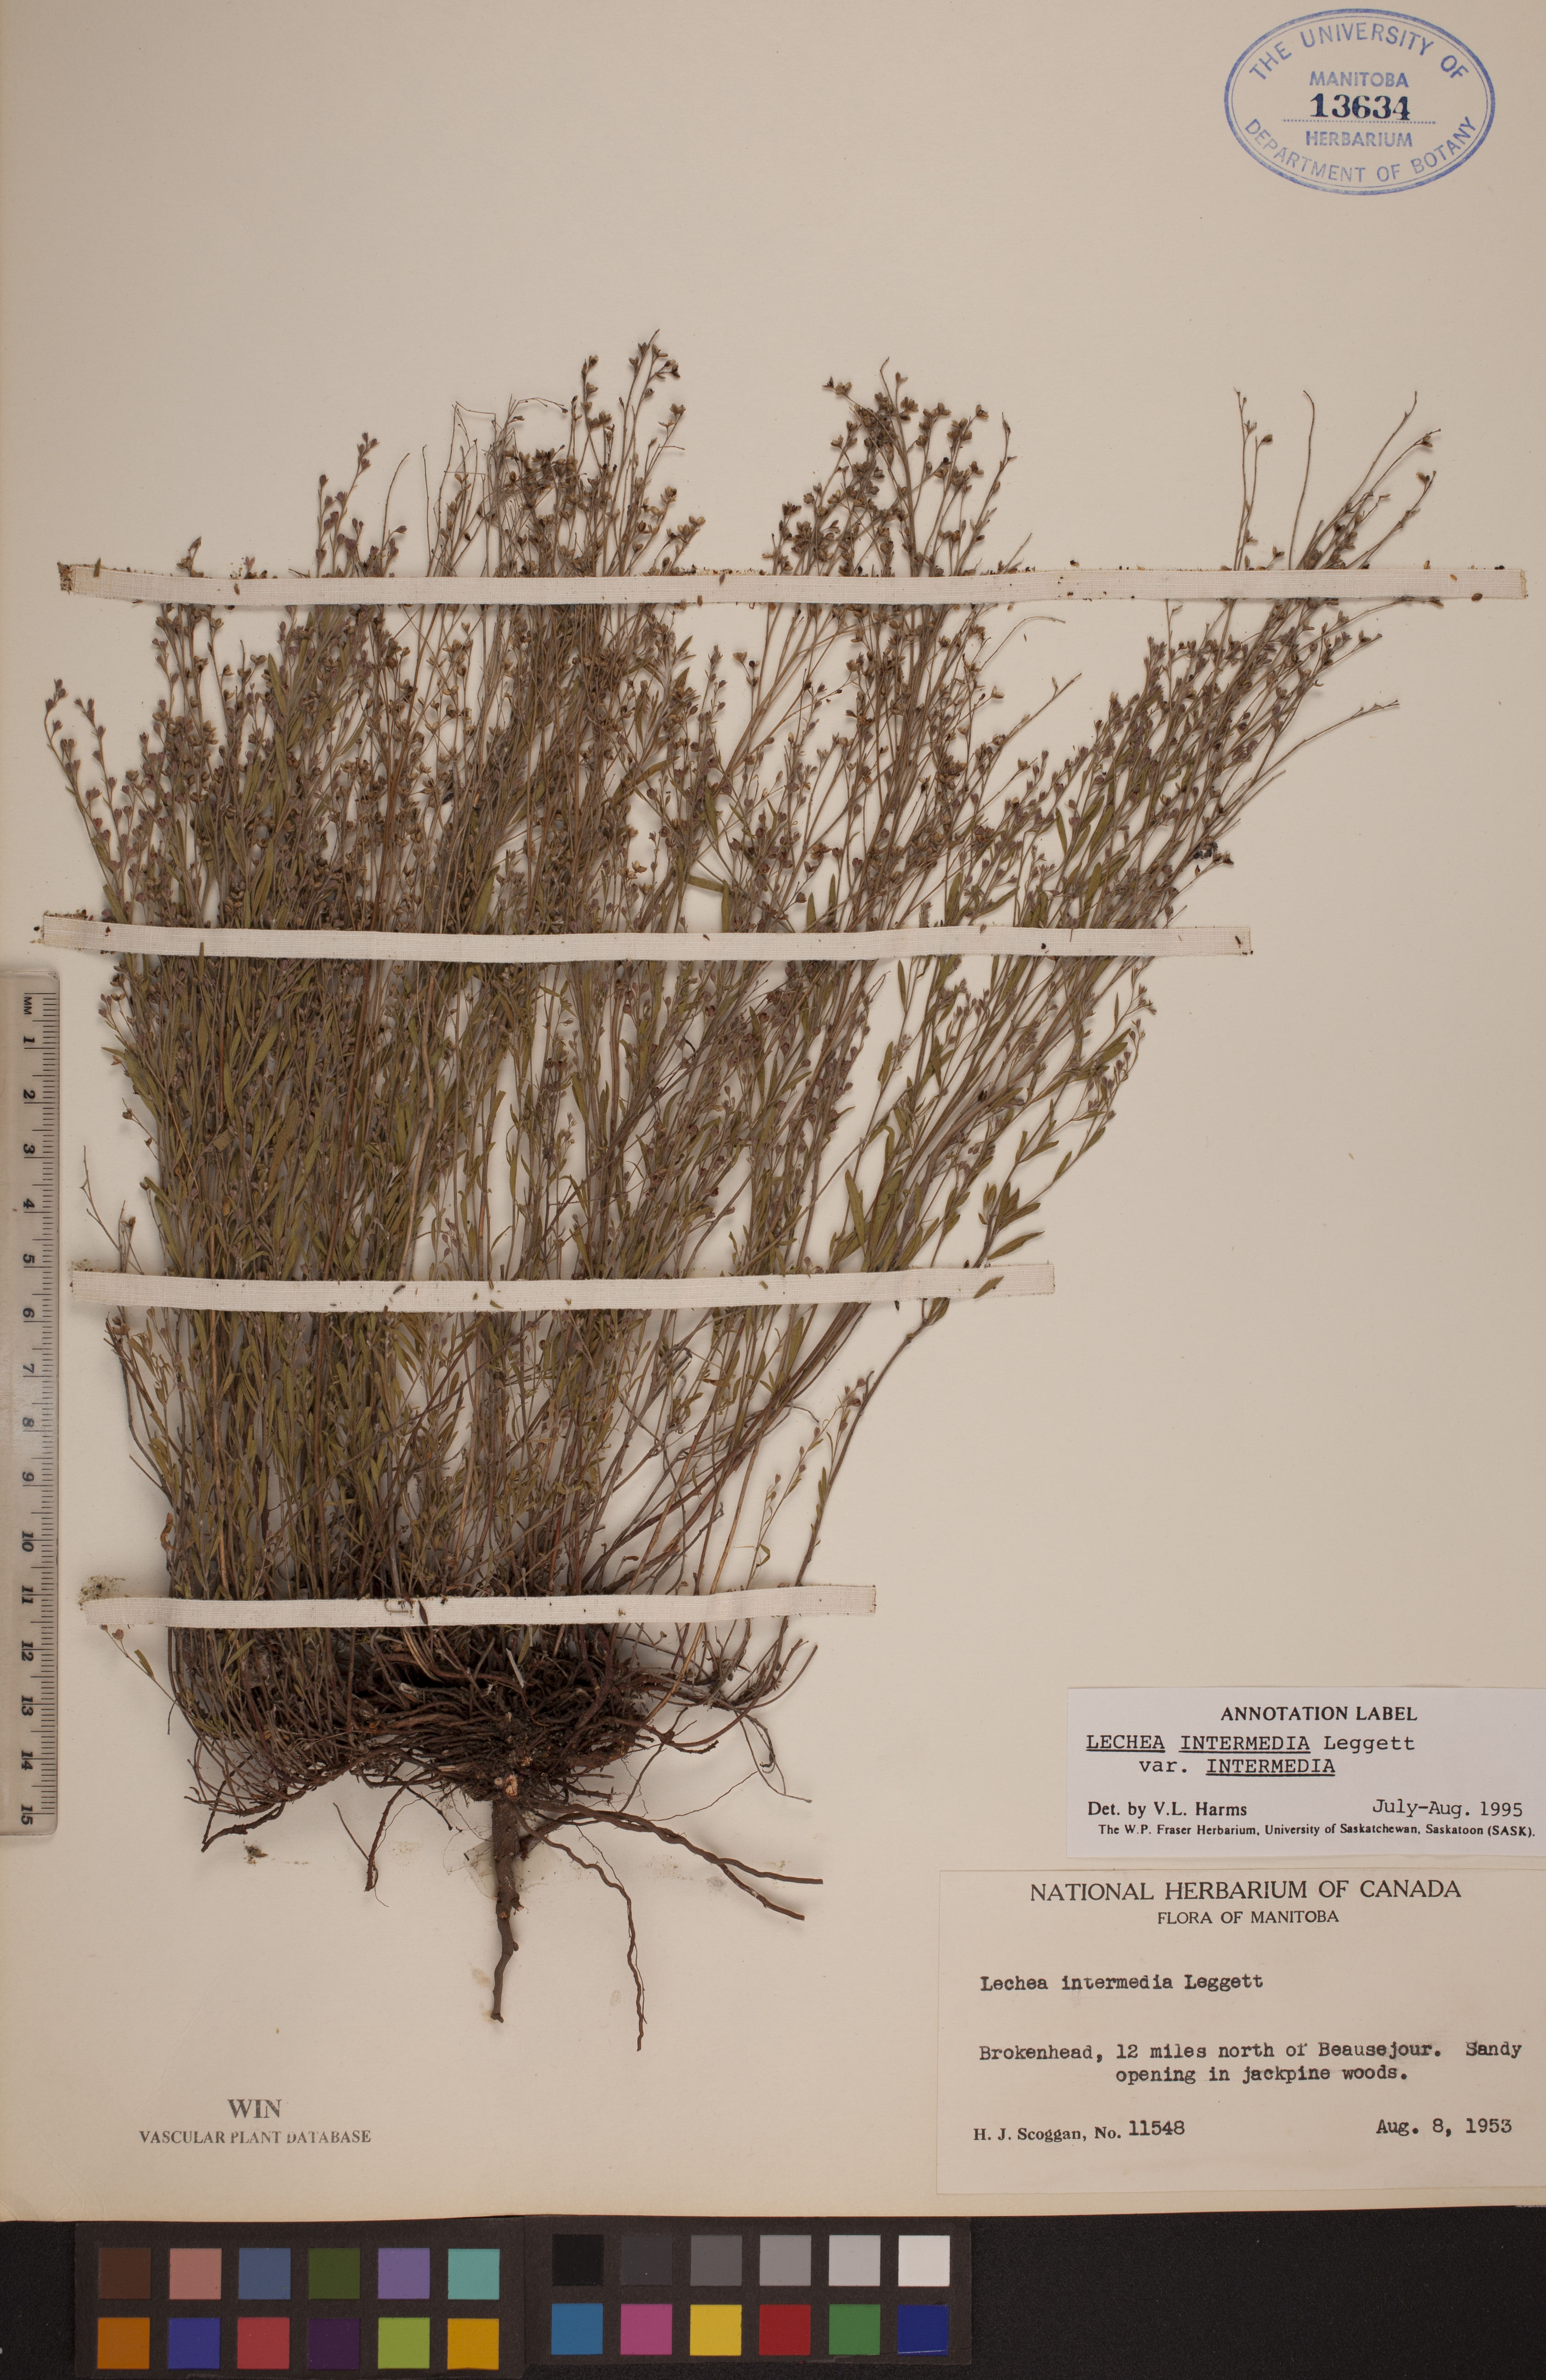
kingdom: Plantae
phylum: Tracheophyta
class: Magnoliopsida
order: Malvales
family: Cistaceae
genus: Lechea
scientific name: Lechea intermedia
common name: Intermediate pinweed
